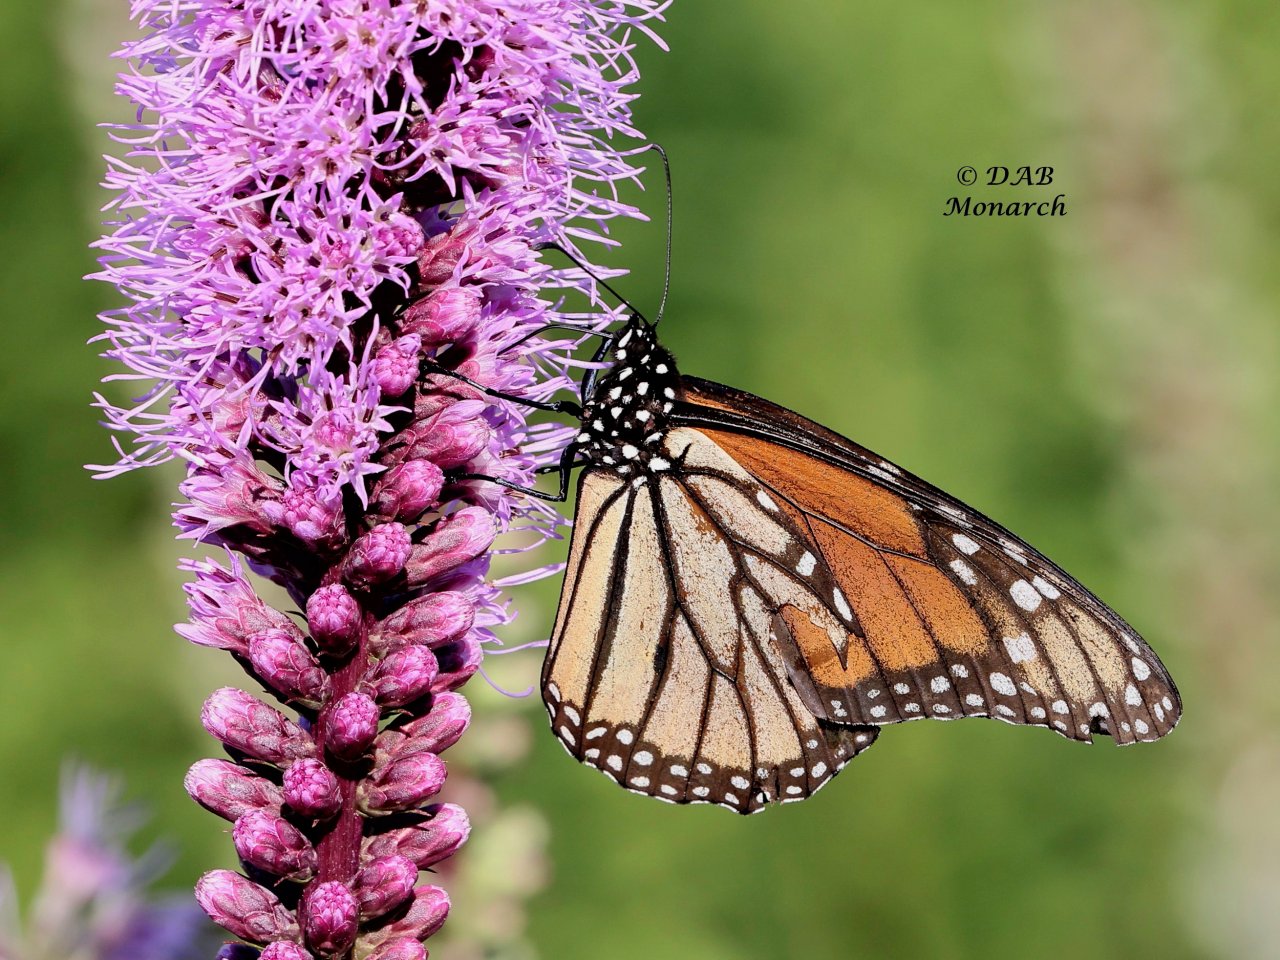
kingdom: Animalia
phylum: Arthropoda
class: Insecta
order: Lepidoptera
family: Nymphalidae
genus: Danaus
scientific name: Danaus plexippus
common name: Monarch
